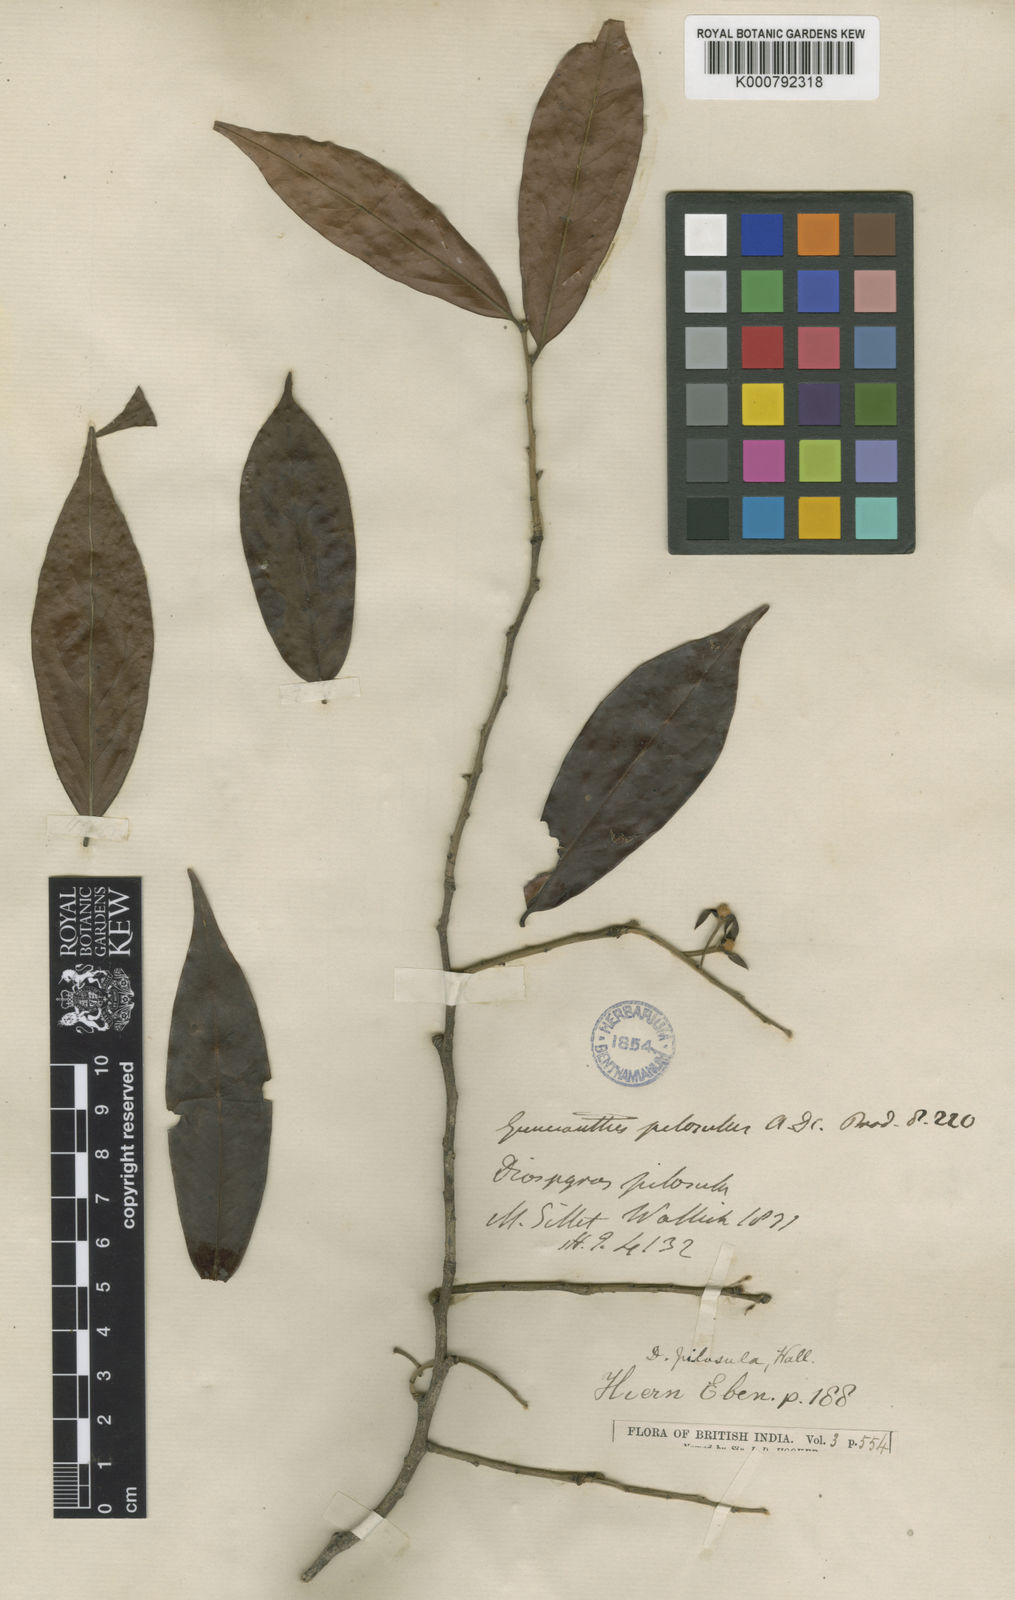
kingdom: Plantae
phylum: Tracheophyta
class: Magnoliopsida
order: Ericales
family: Ebenaceae
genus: Diospyros
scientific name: Diospyros pilosiuscula
